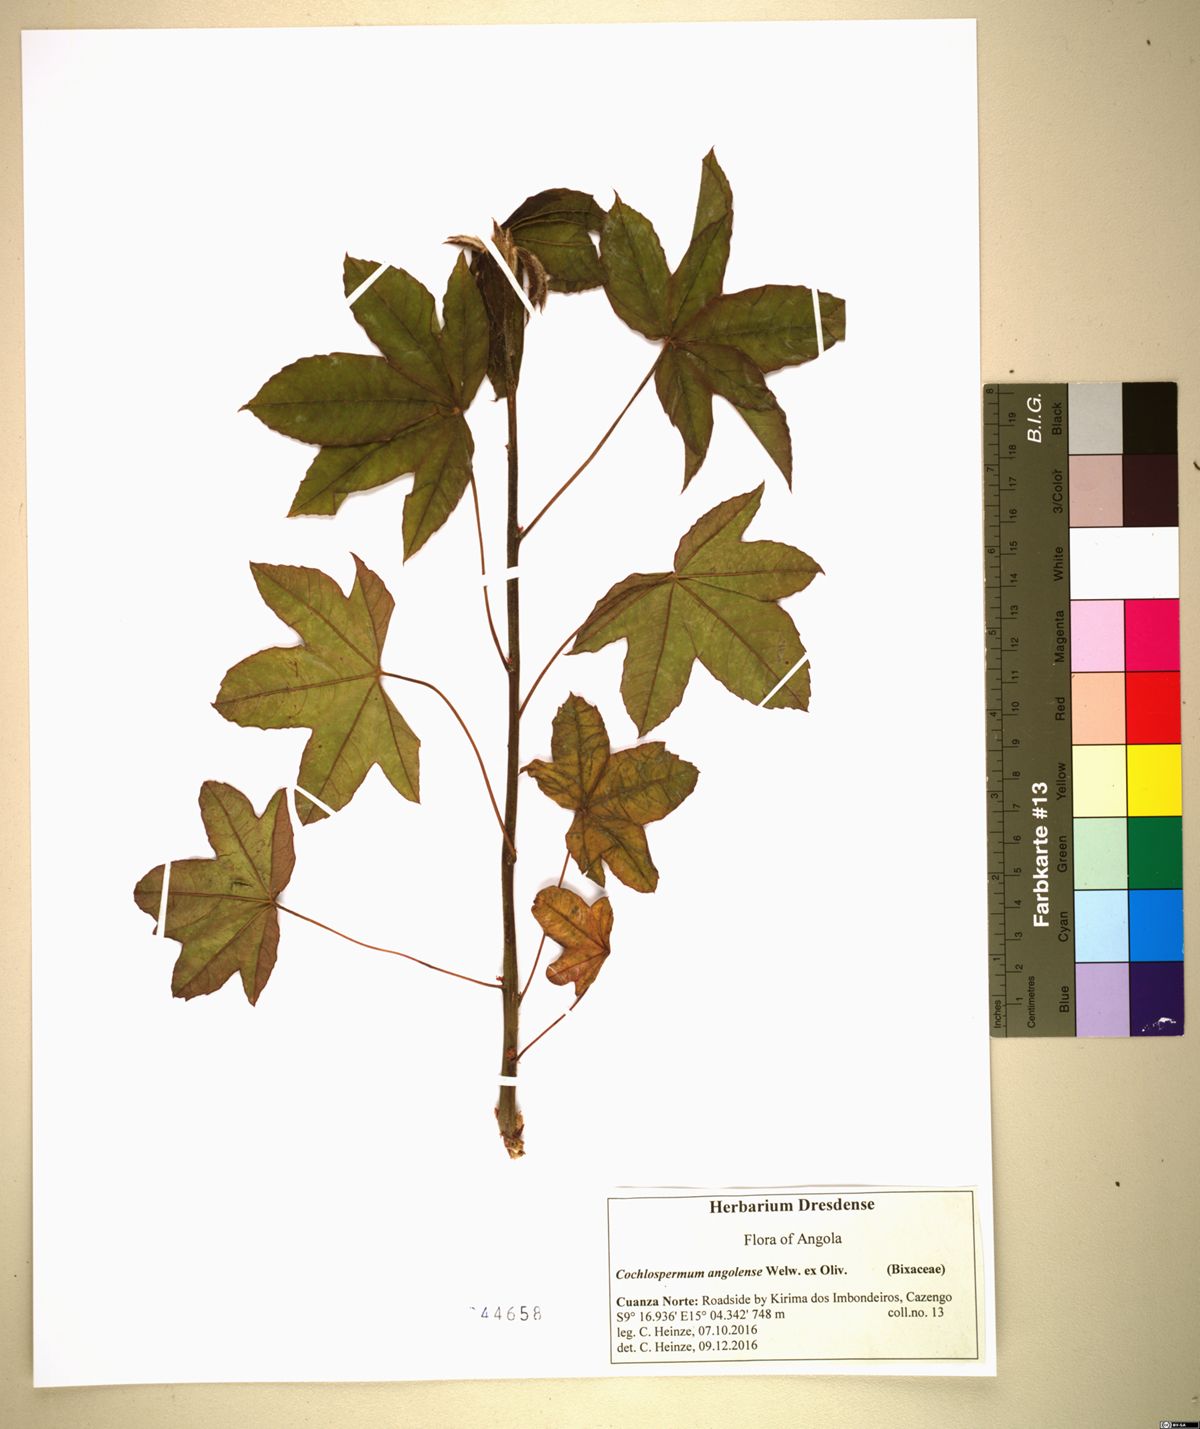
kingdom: Plantae
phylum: Tracheophyta
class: Magnoliopsida
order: Malvales
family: Cochlospermaceae
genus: Cochlospermum
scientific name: Cochlospermum angolense
